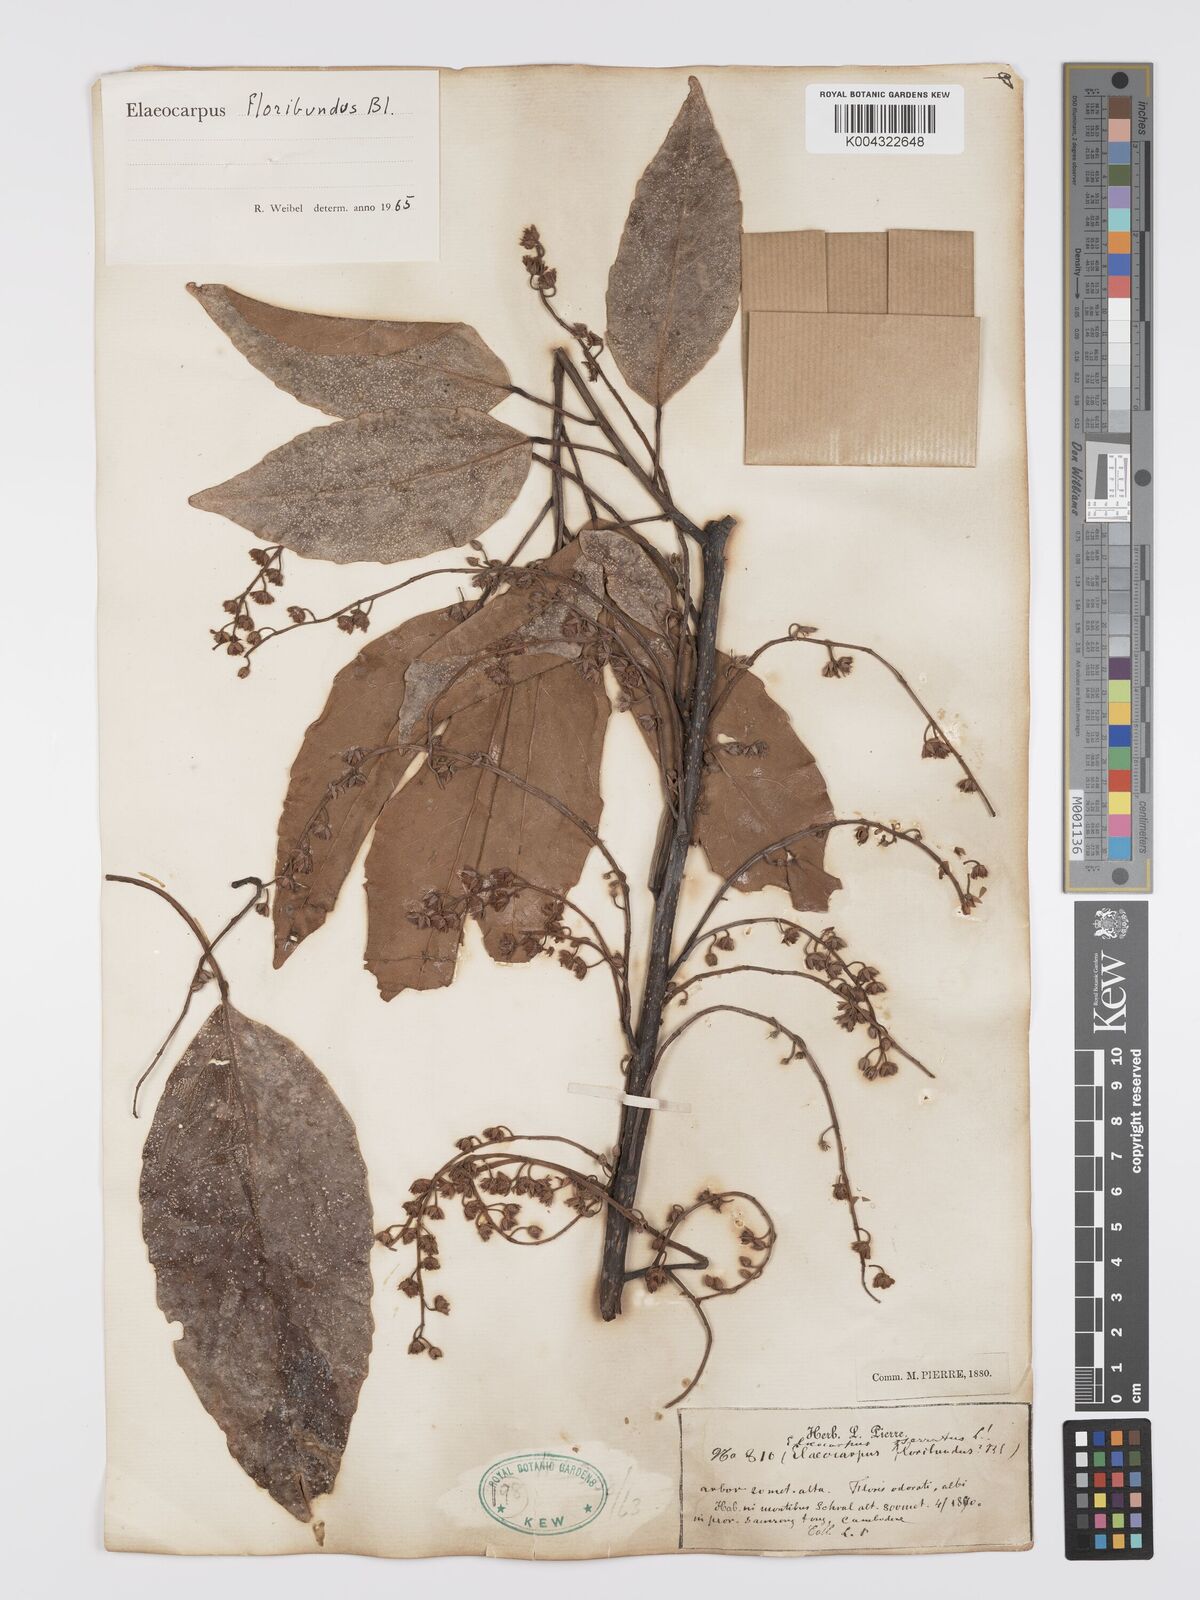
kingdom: Plantae
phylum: Tracheophyta
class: Magnoliopsida
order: Oxalidales
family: Elaeocarpaceae
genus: Elaeocarpus
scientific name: Elaeocarpus floribundus
